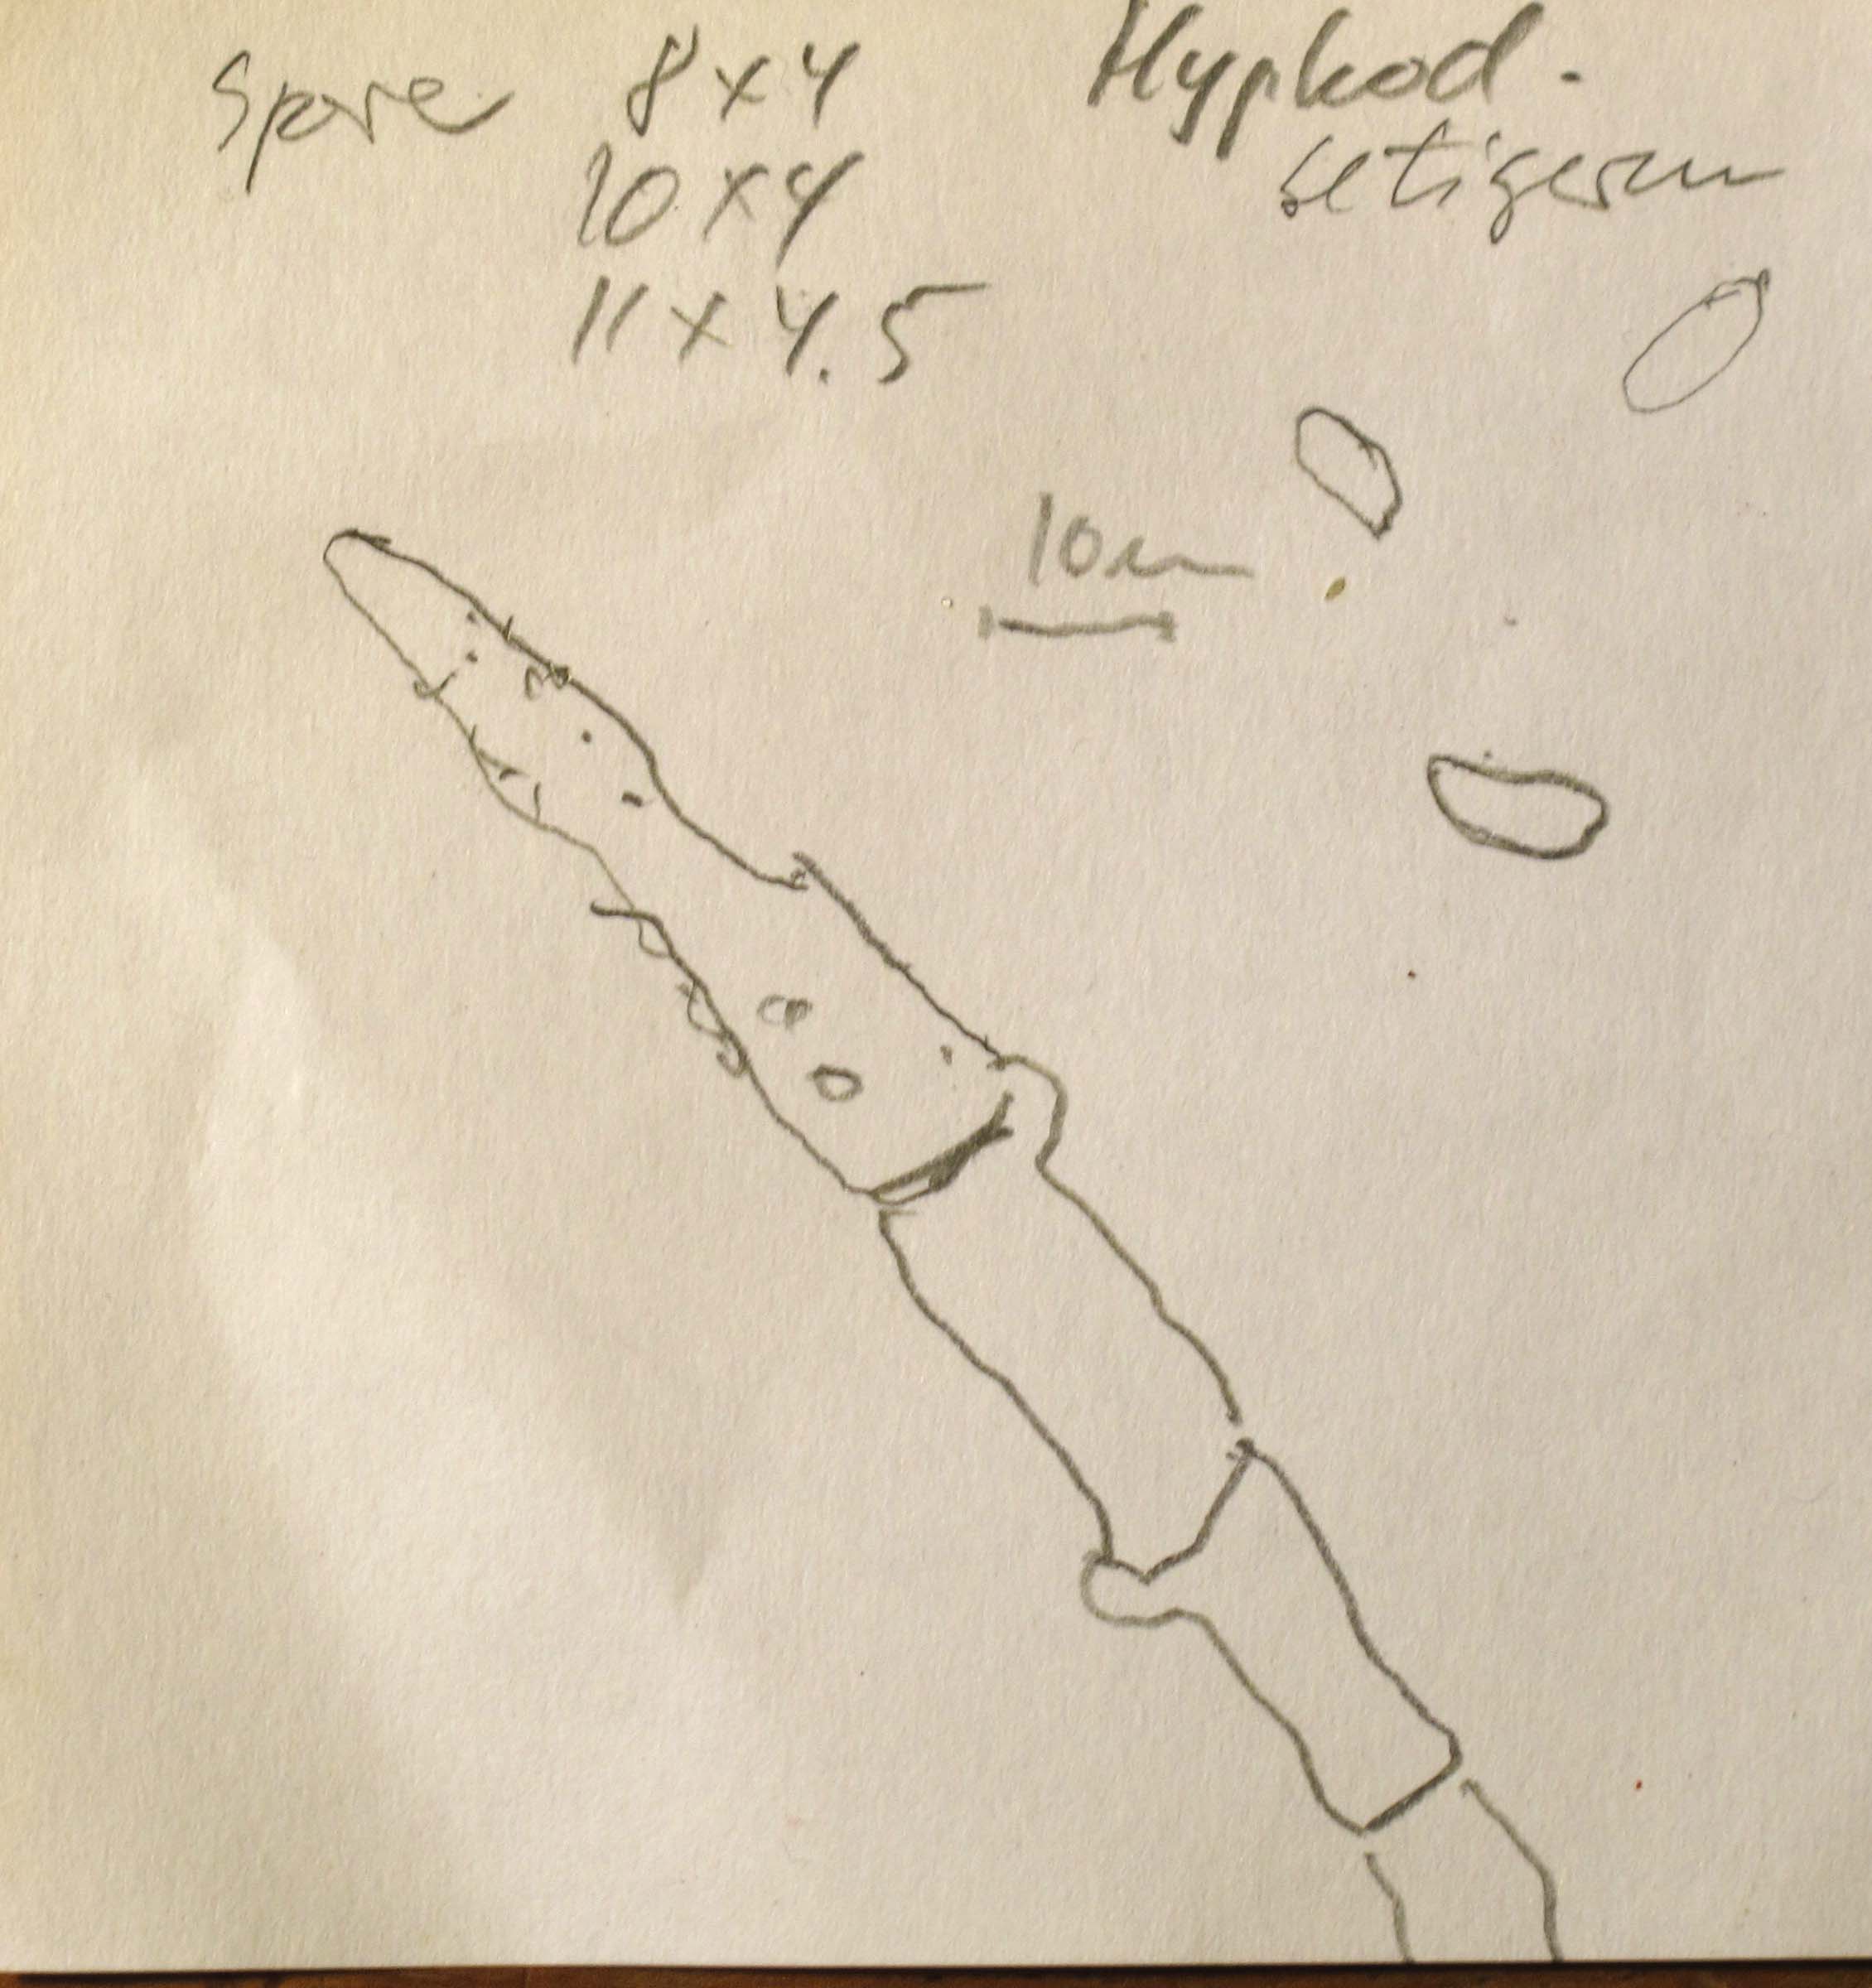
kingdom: Fungi
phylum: Basidiomycota
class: Agaricomycetes
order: Polyporales
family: Hyphodermataceae
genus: Hyphoderma
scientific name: Hyphoderma setigerum
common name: håret kalkskind
